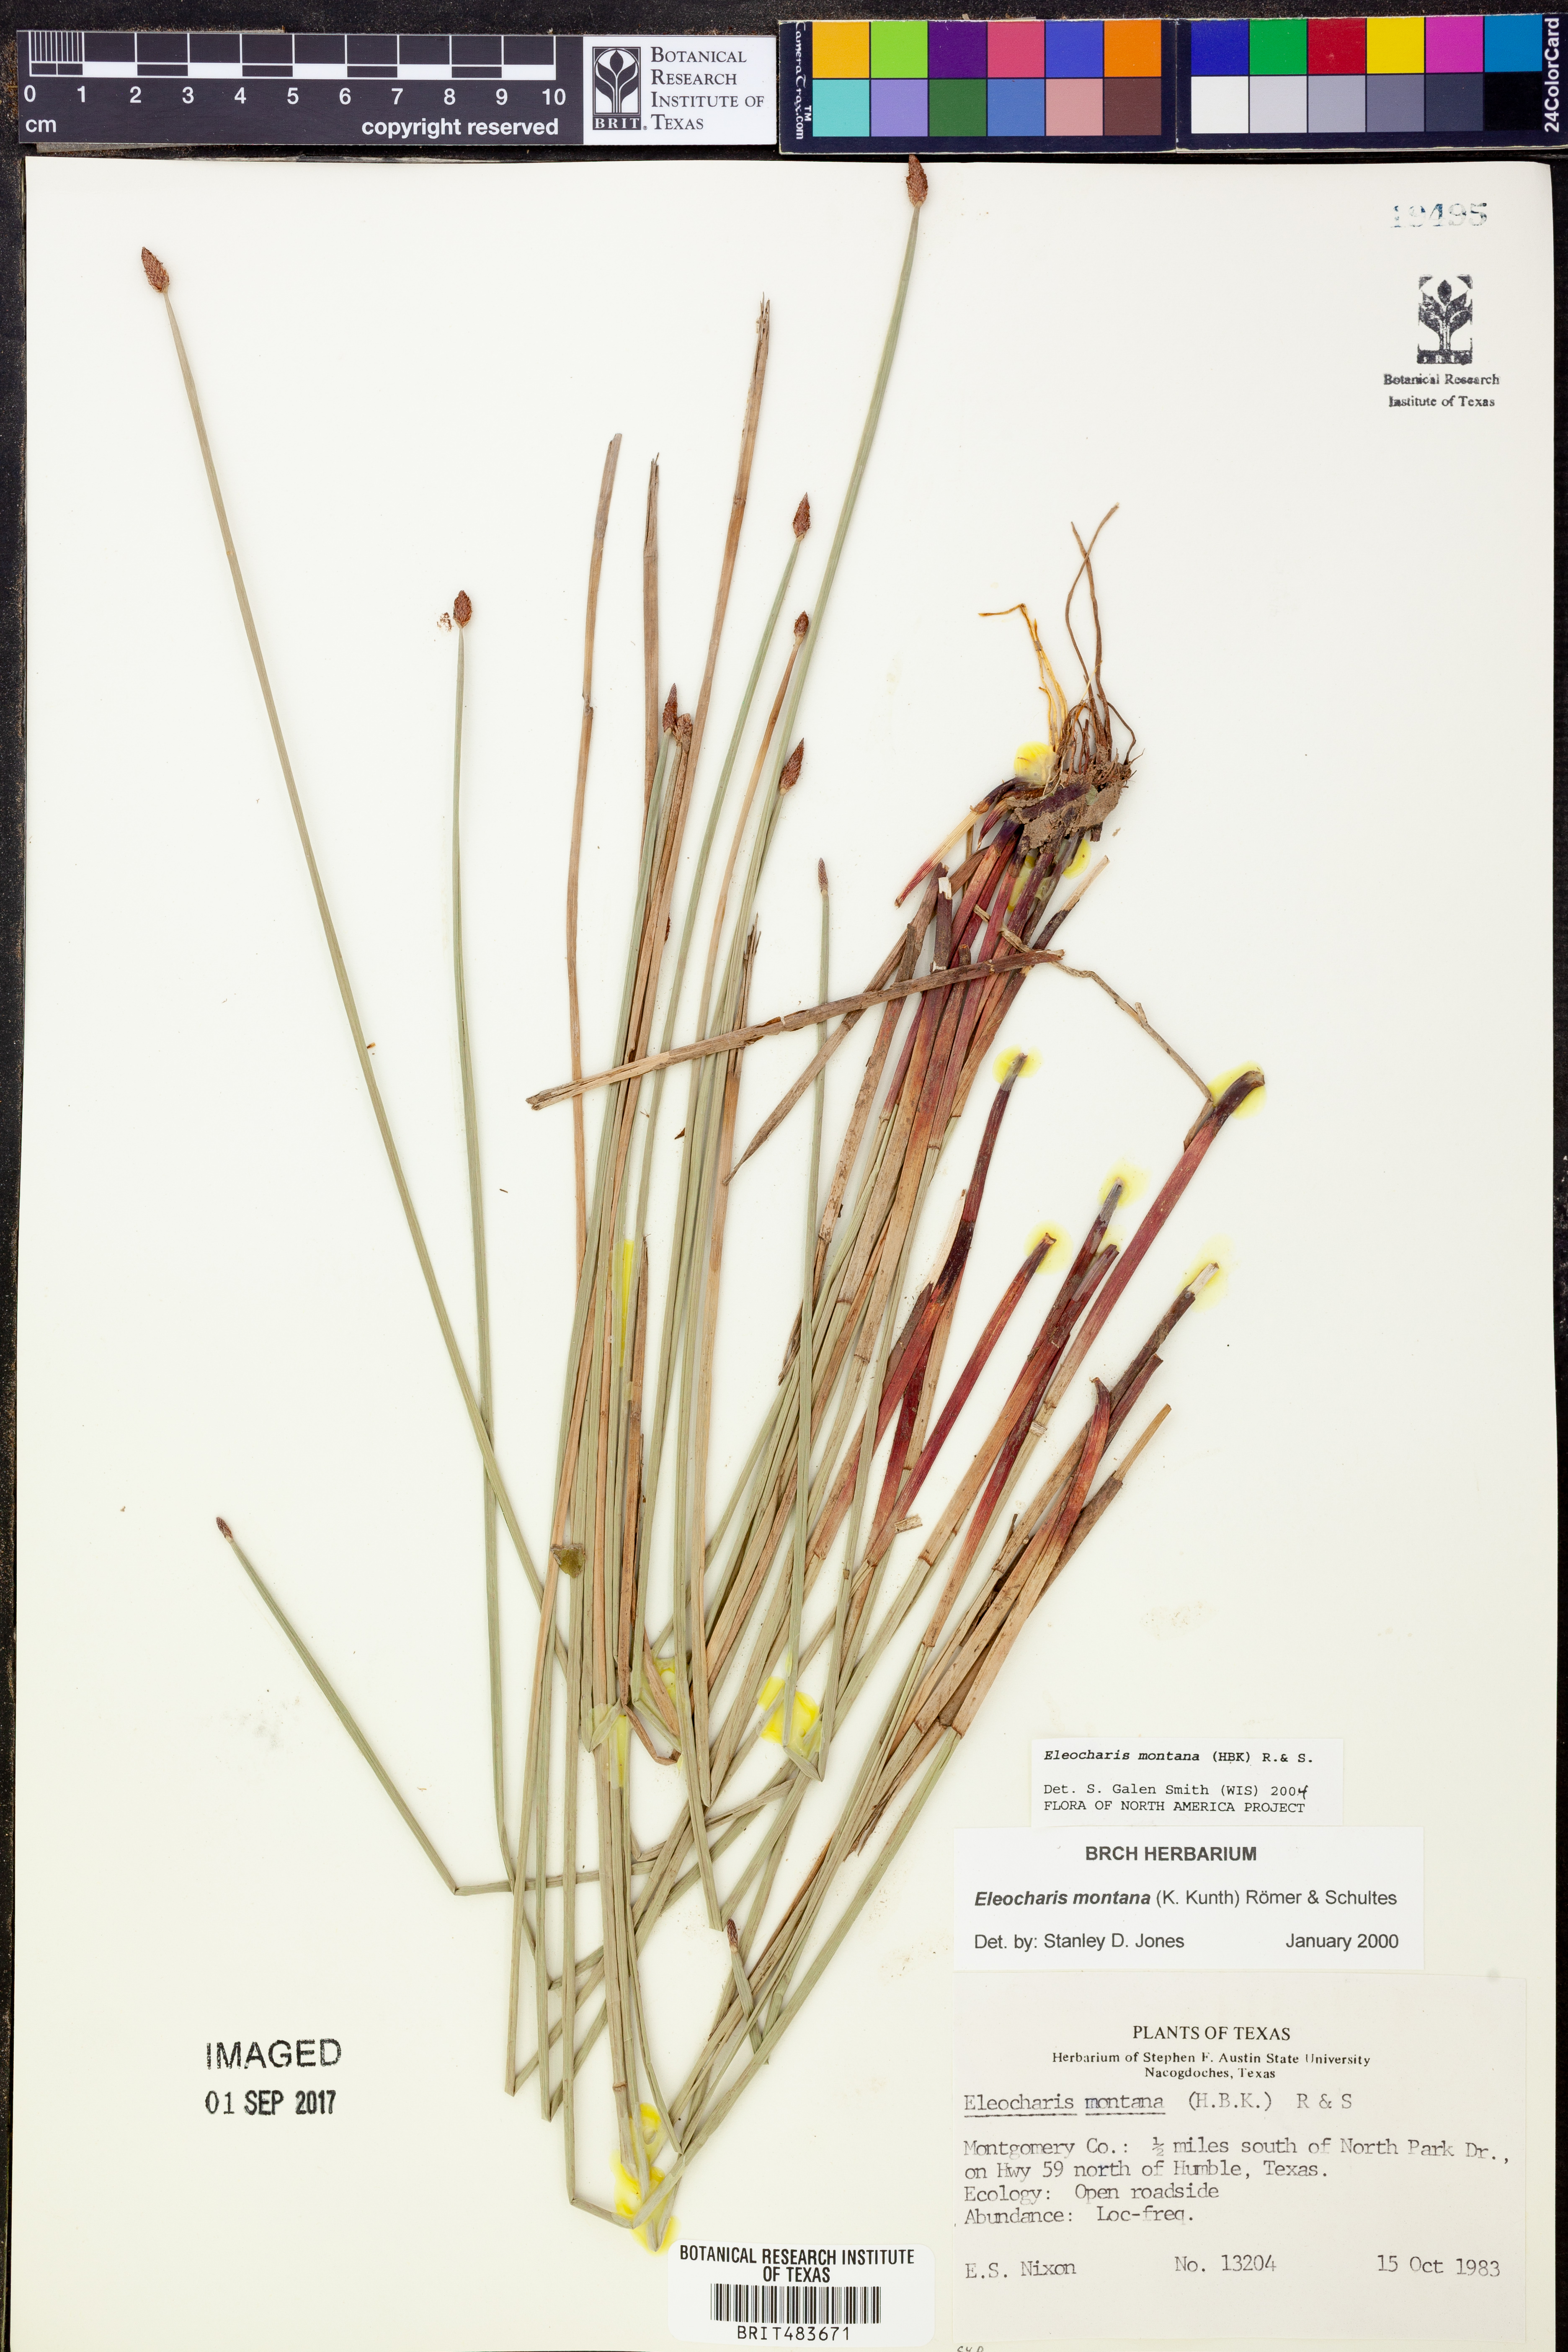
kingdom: Plantae
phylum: Tracheophyta
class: Liliopsida
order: Poales
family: Cyperaceae
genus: Eleocharis
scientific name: Eleocharis montana
